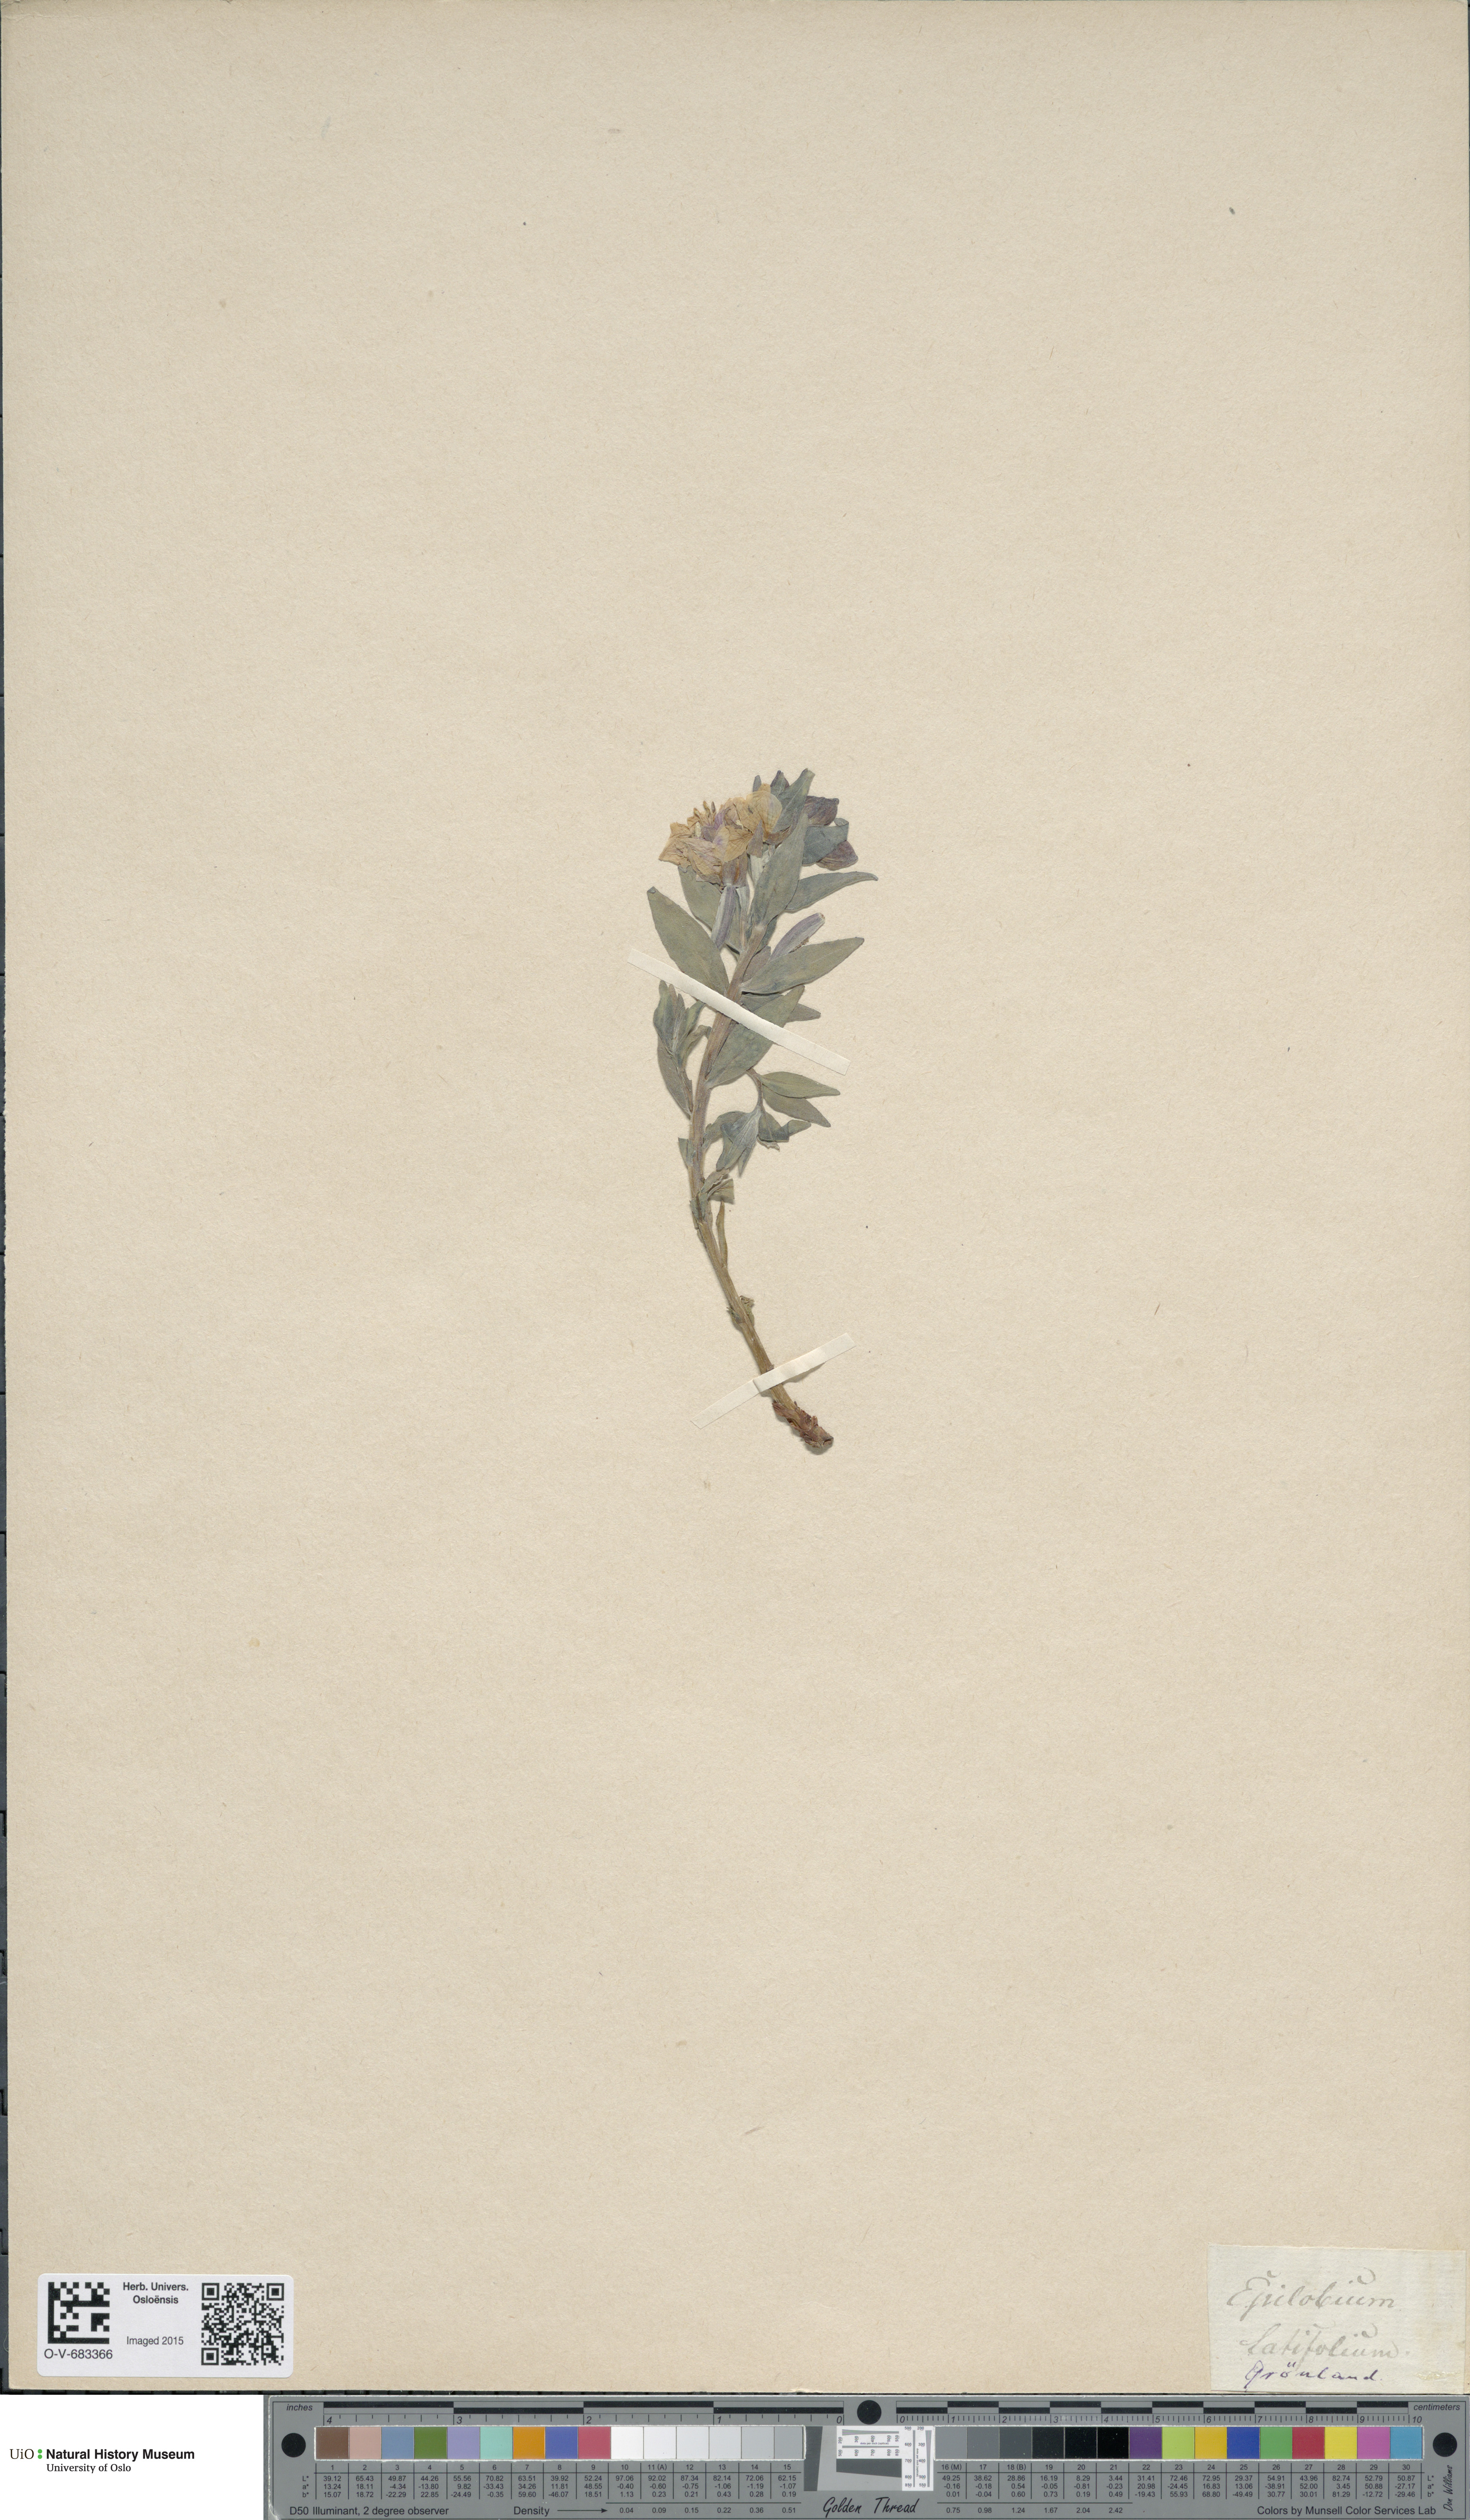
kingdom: Plantae
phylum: Tracheophyta
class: Magnoliopsida
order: Myrtales
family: Onagraceae
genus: Chamaenerion
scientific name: Chamaenerion latifolium
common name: Dwarf fireweed
